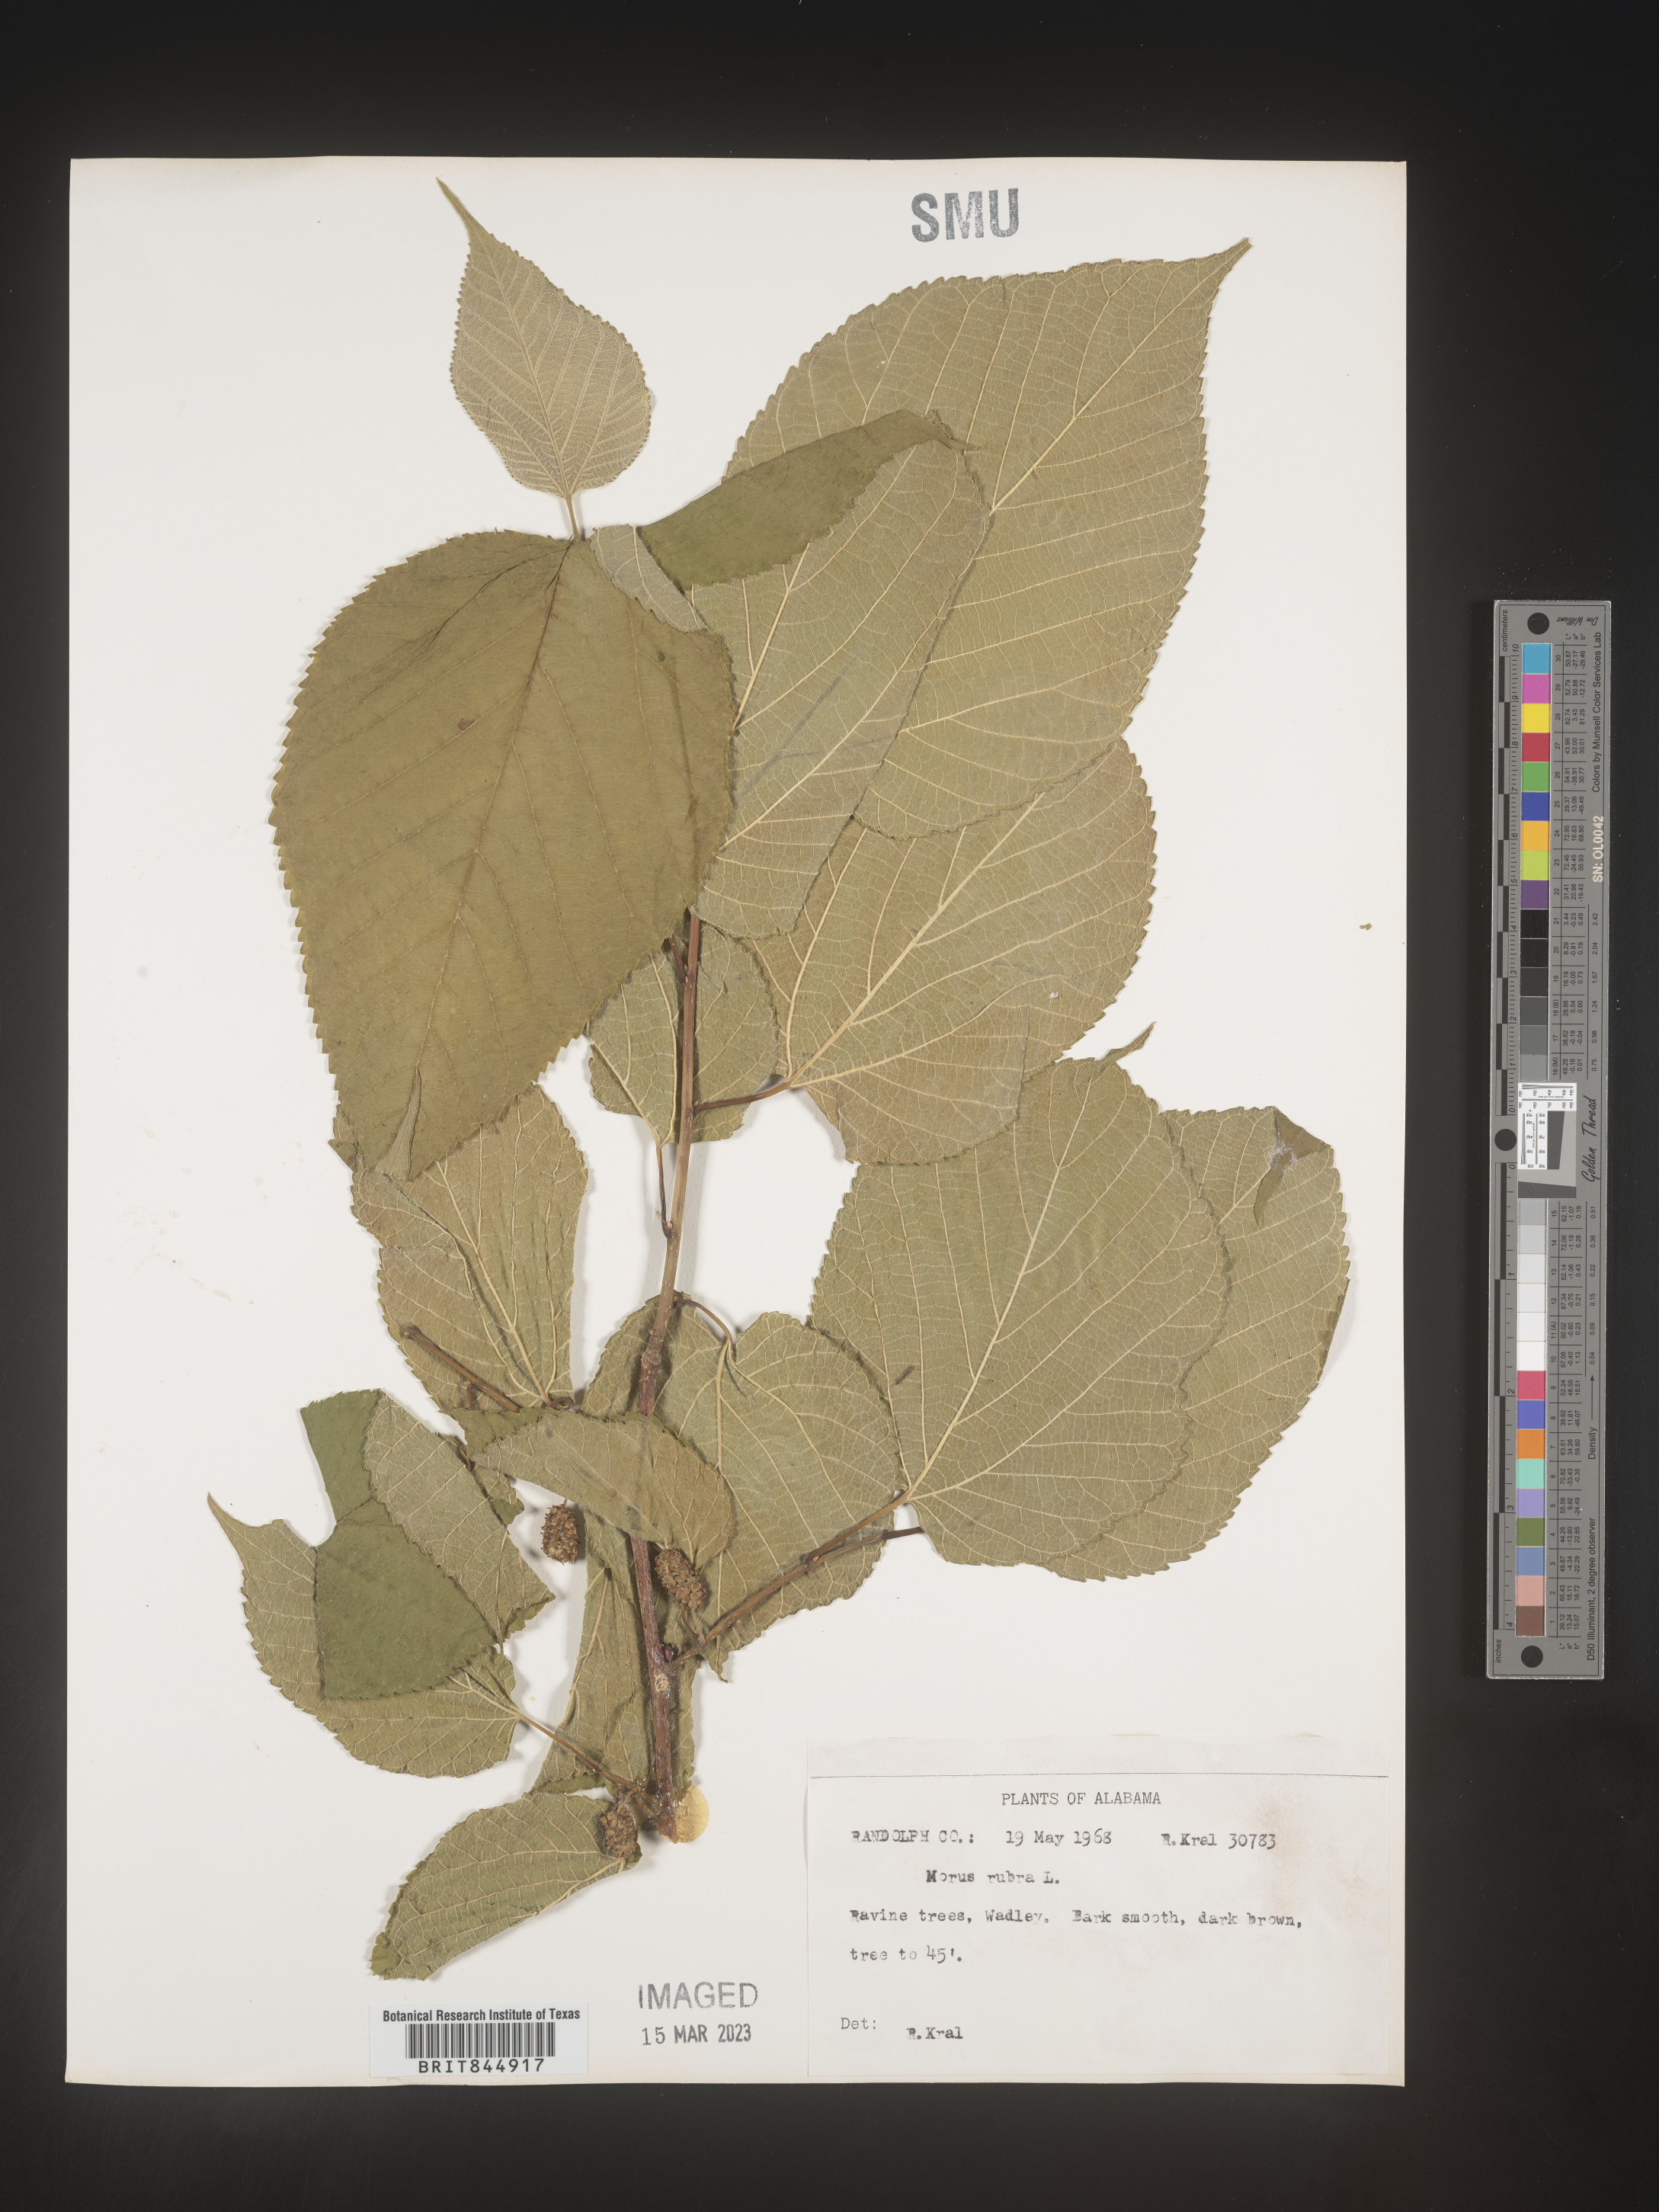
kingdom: Plantae
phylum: Tracheophyta
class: Magnoliopsida
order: Rosales
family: Moraceae
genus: Morus
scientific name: Morus rubra
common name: Red mulberry
